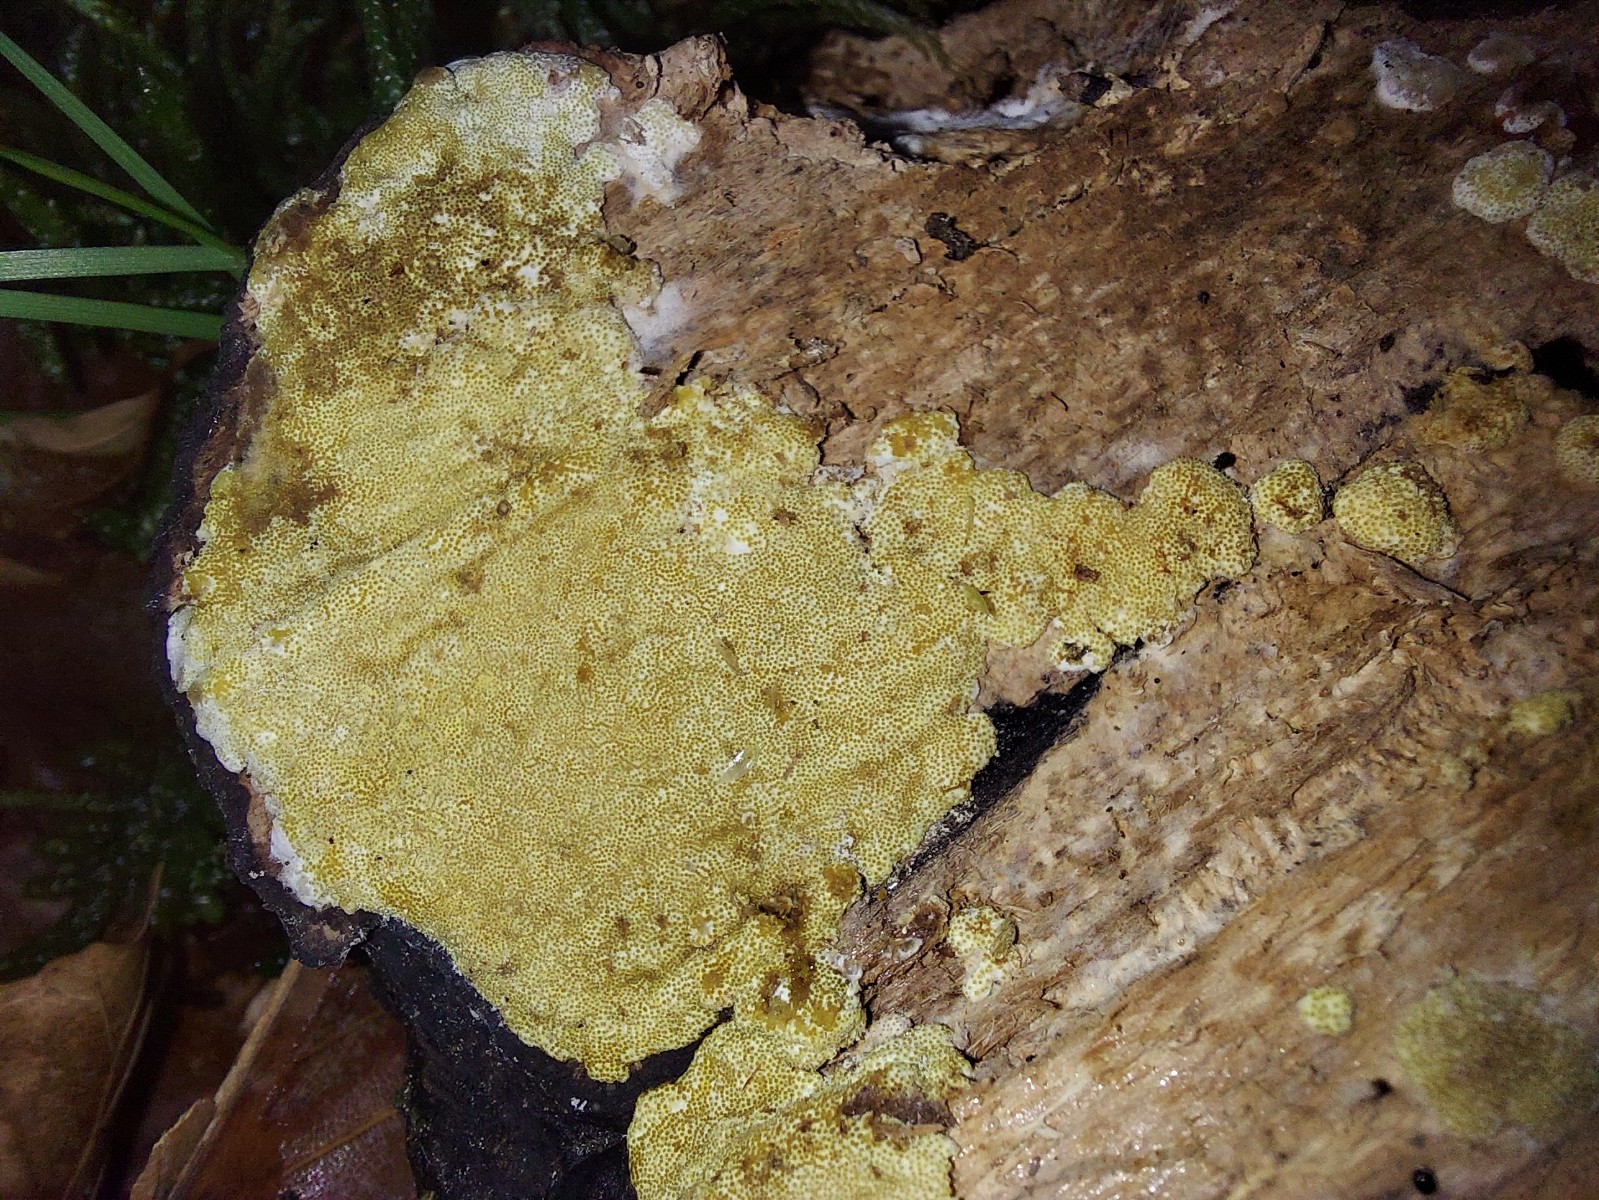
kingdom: Fungi
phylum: Ascomycota
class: Sordariomycetes
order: Hypocreales
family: Hypocreaceae
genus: Trichoderma
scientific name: Trichoderma pulvinatum
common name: snyltende kødkerne
